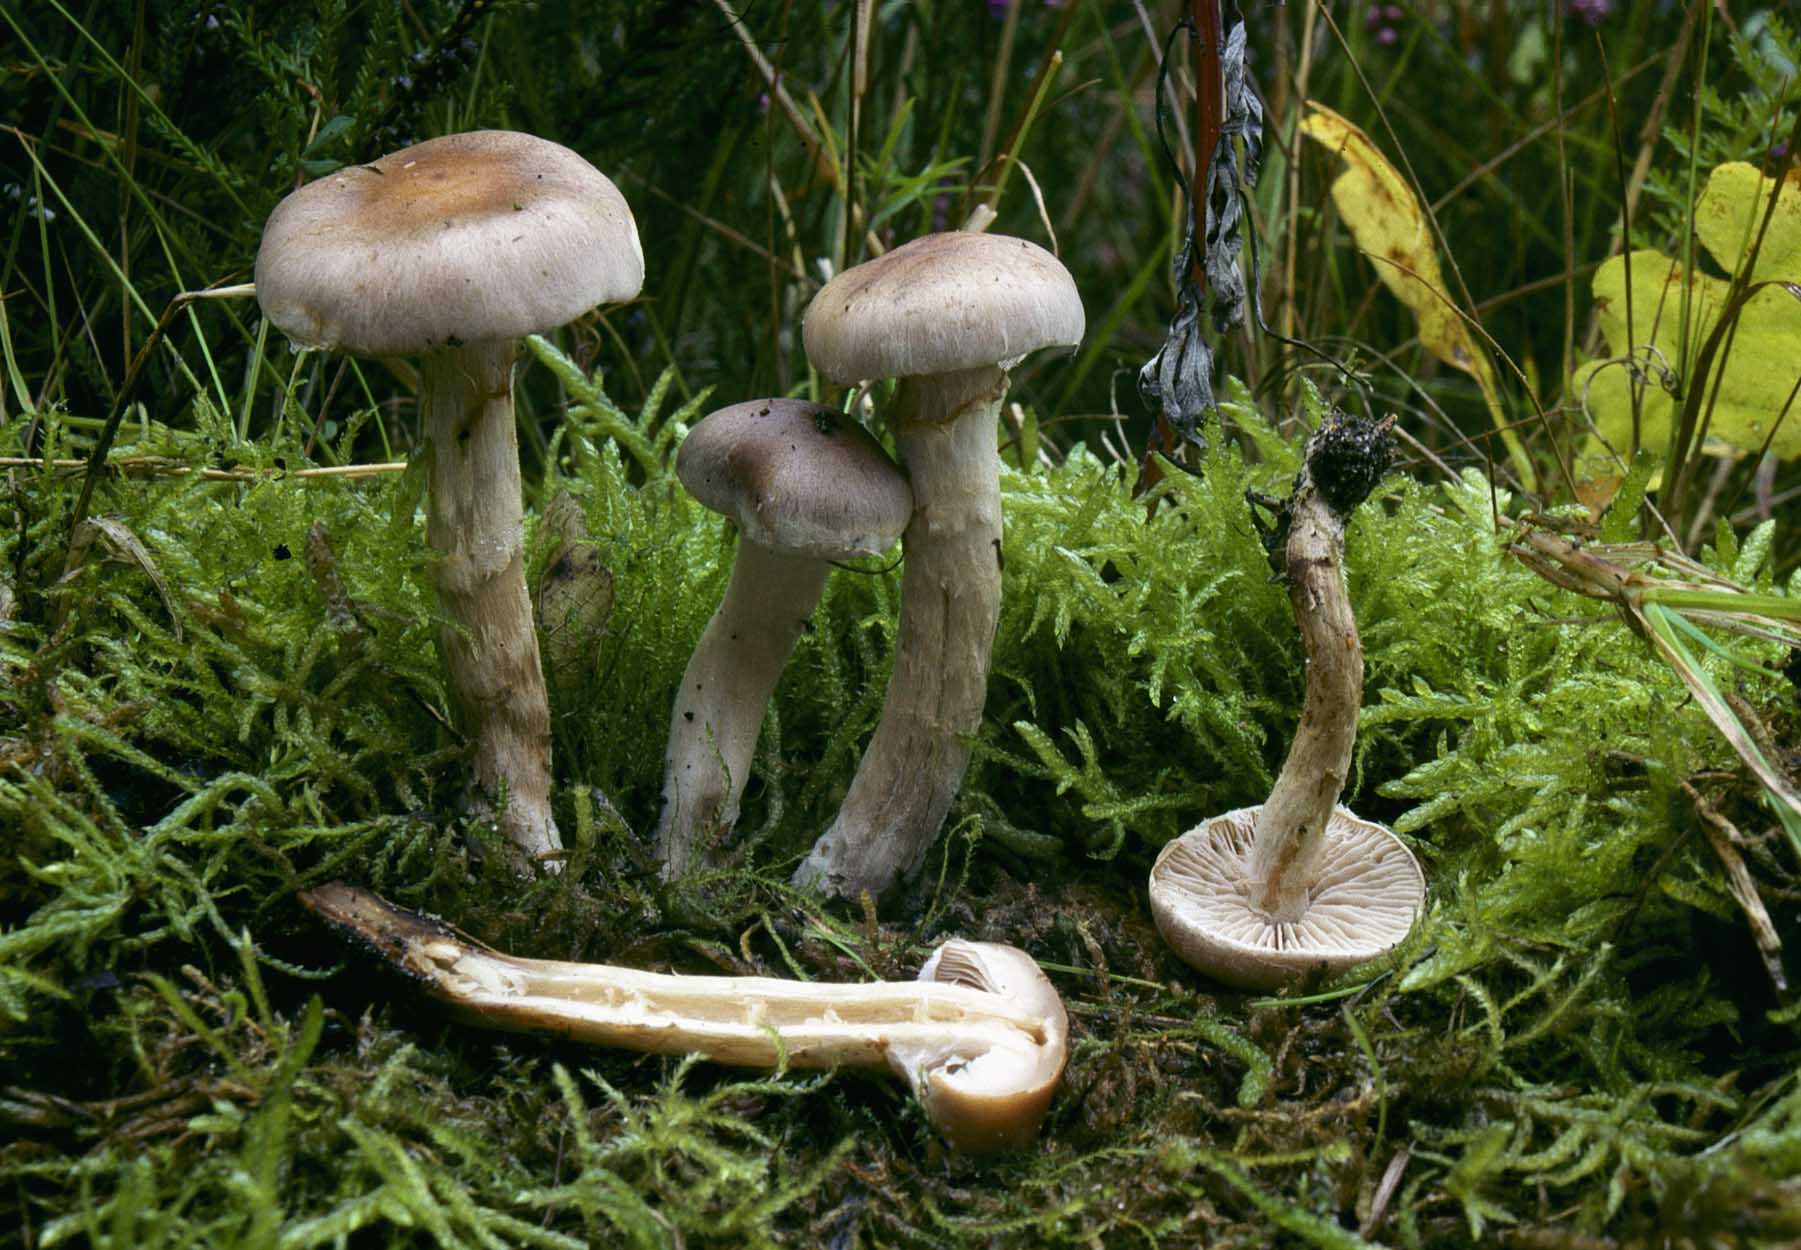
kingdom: Fungi
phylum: Basidiomycota
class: Agaricomycetes
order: Agaricales
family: Hymenogastraceae
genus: Hebeloma
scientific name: Hebeloma mesophaeum
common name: lerbrun tåreblad
